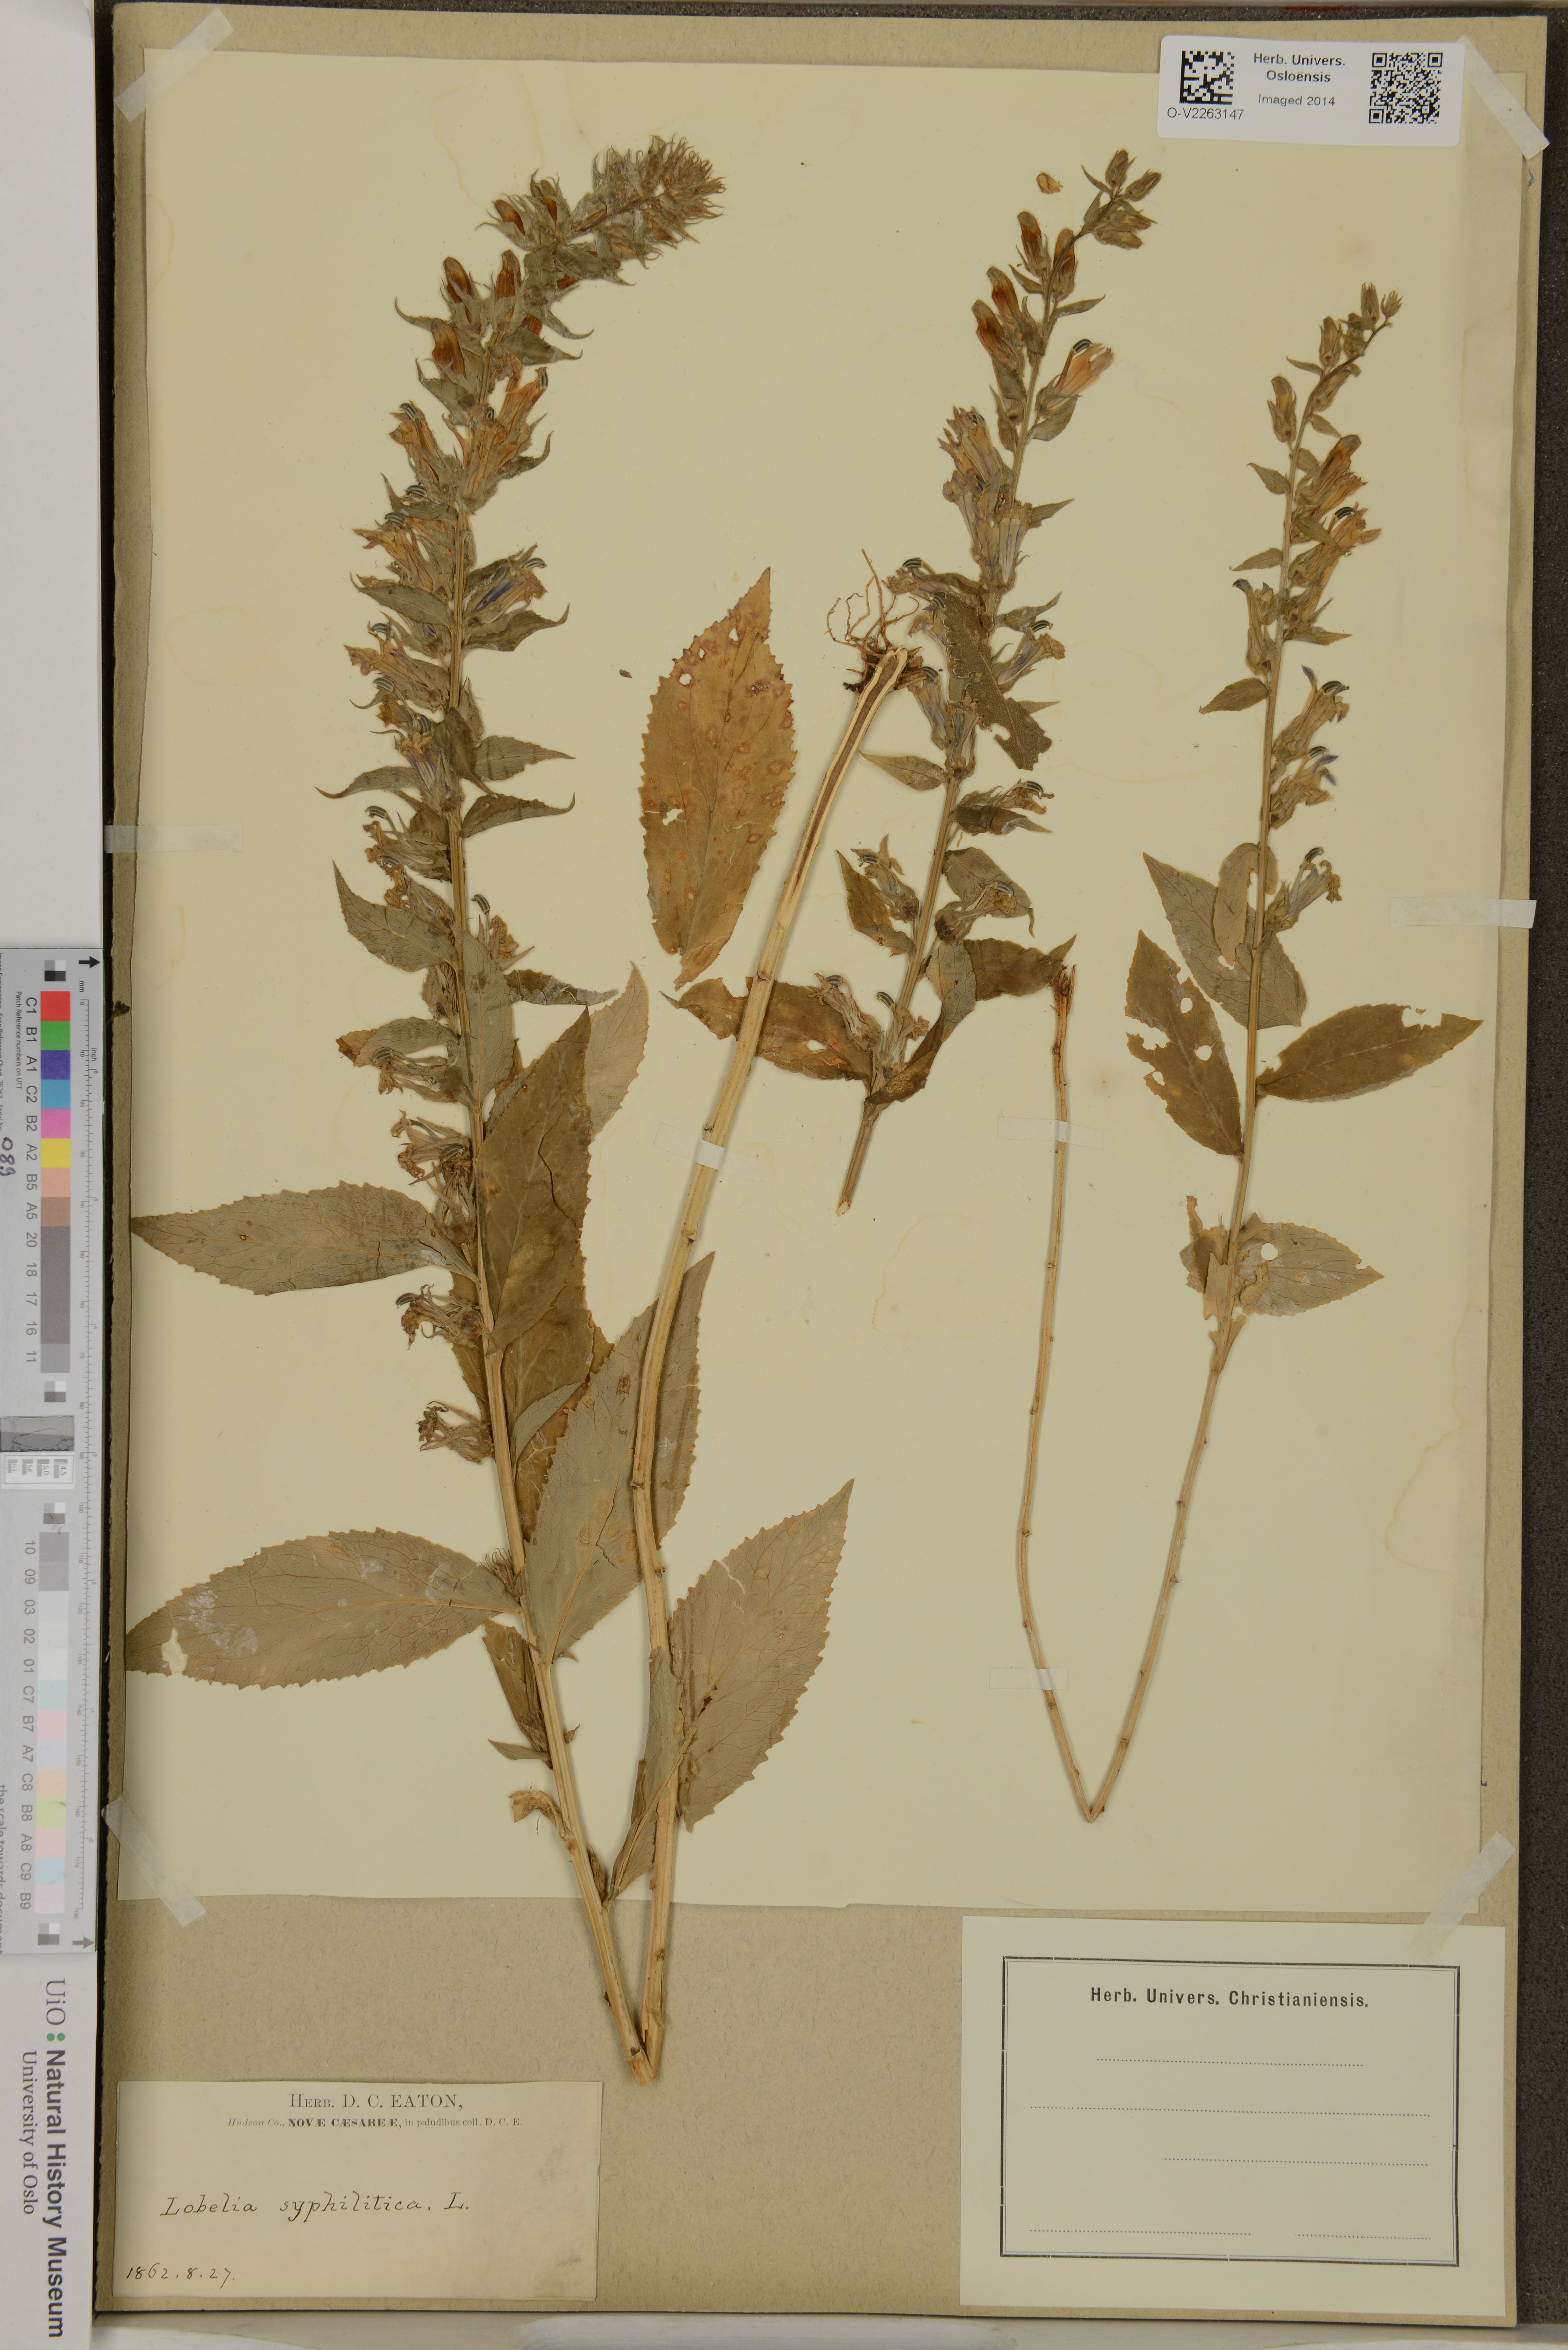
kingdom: Plantae
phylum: Tracheophyta
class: Magnoliopsida
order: Asterales
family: Campanulaceae
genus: Lobelia
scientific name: Lobelia siphilitica
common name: Great lobelia
